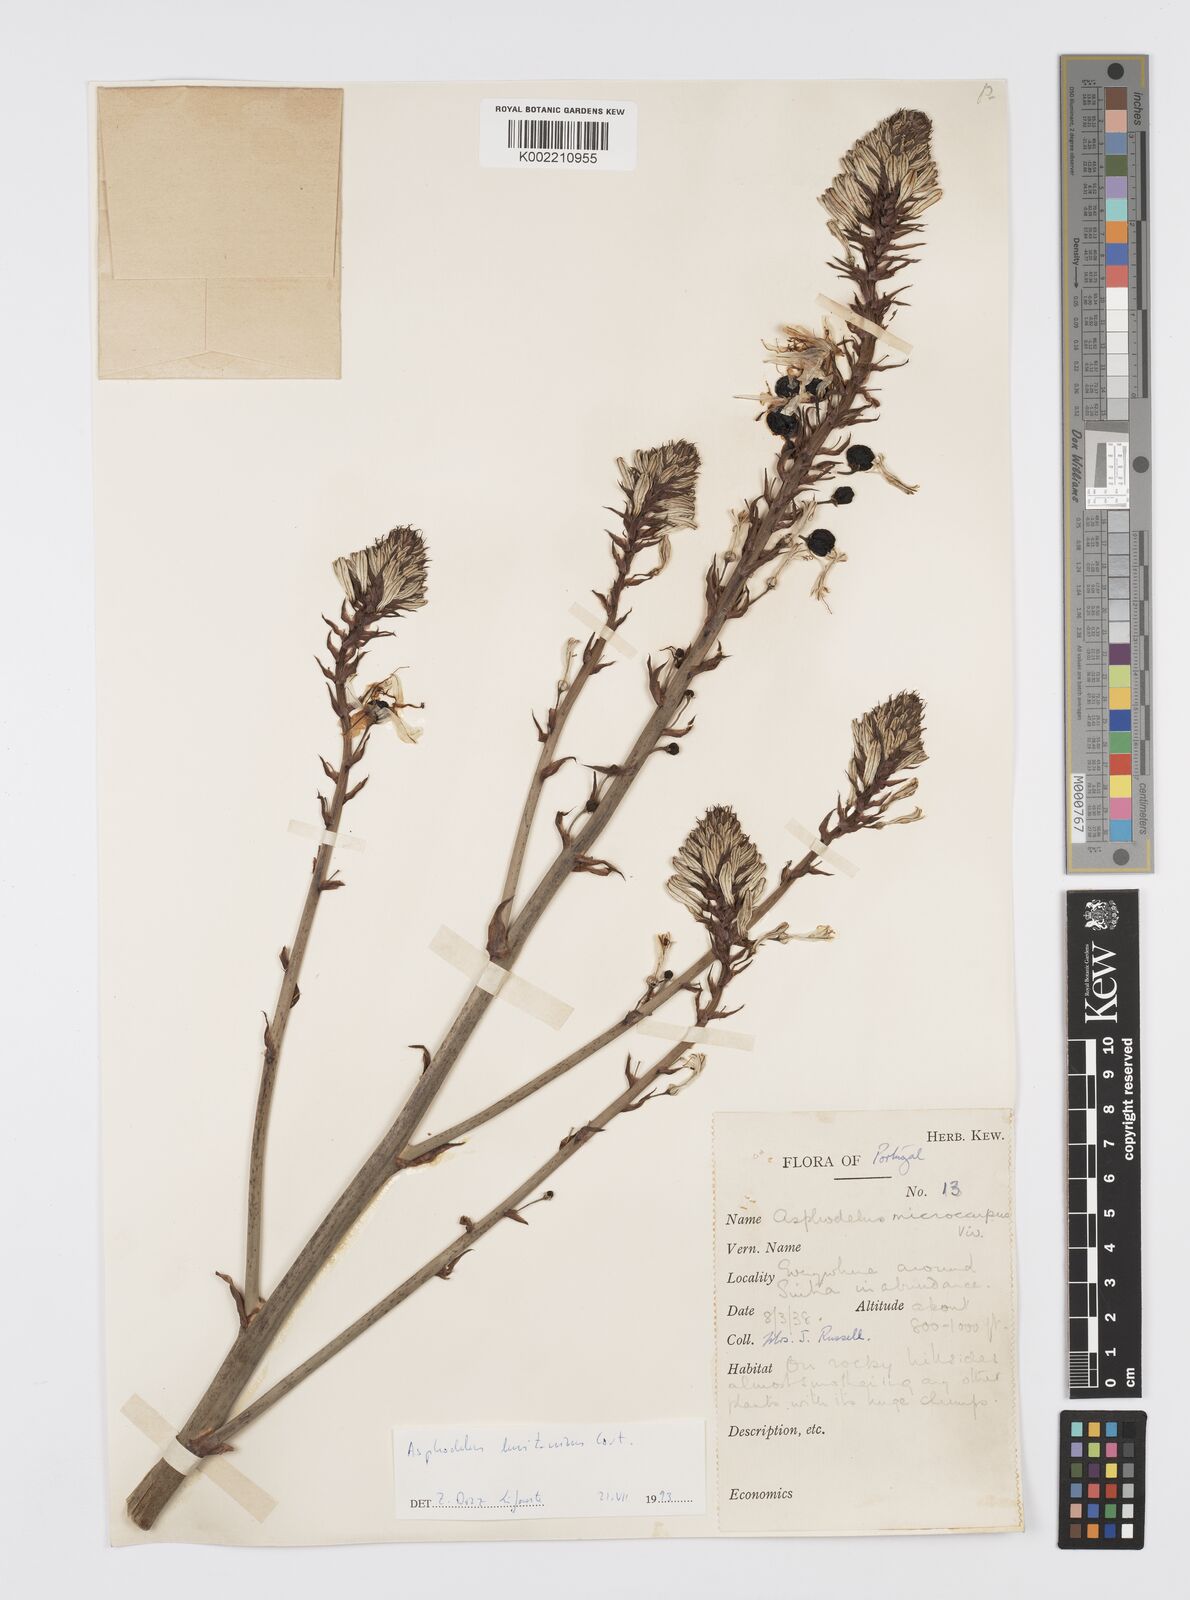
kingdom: Plantae
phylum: Tracheophyta
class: Liliopsida
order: Asparagales
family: Asphodelaceae
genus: Asphodelus
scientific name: Asphodelus ramosus
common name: Silverrod
